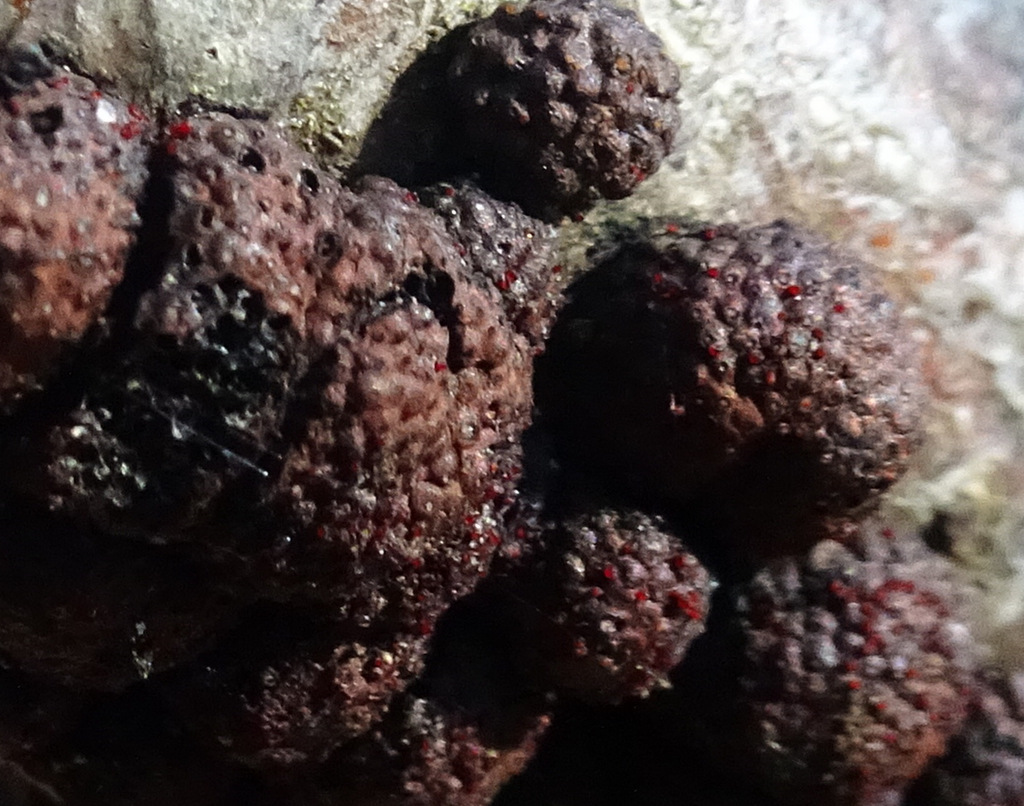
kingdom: Fungi
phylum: Ascomycota
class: Sordariomycetes
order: Hypocreales
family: Nectriaceae
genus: Cosmospora
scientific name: Cosmospora arxii
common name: kuljordbær-cinnobersvamp
